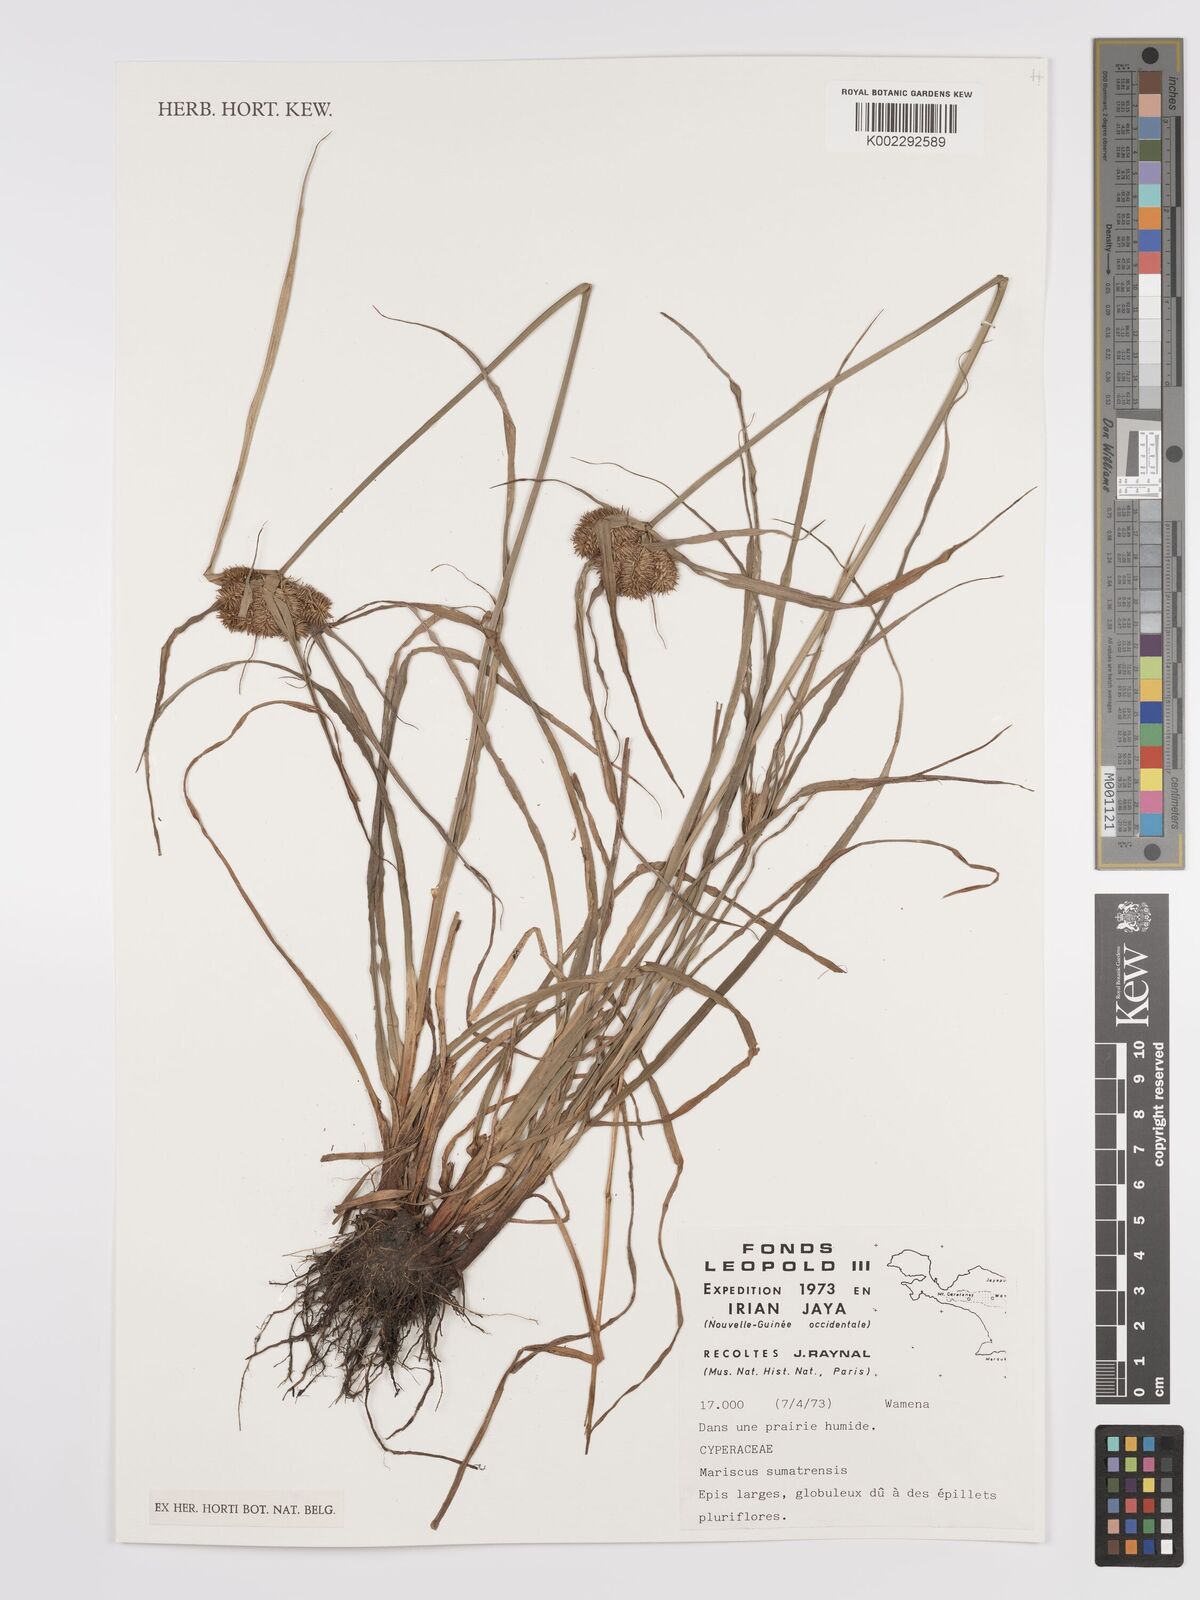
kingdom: Plantae
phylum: Tracheophyta
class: Liliopsida
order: Poales
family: Cyperaceae
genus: Cyperus
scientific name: Cyperus cyperoides
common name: Pacific island flat sedge
